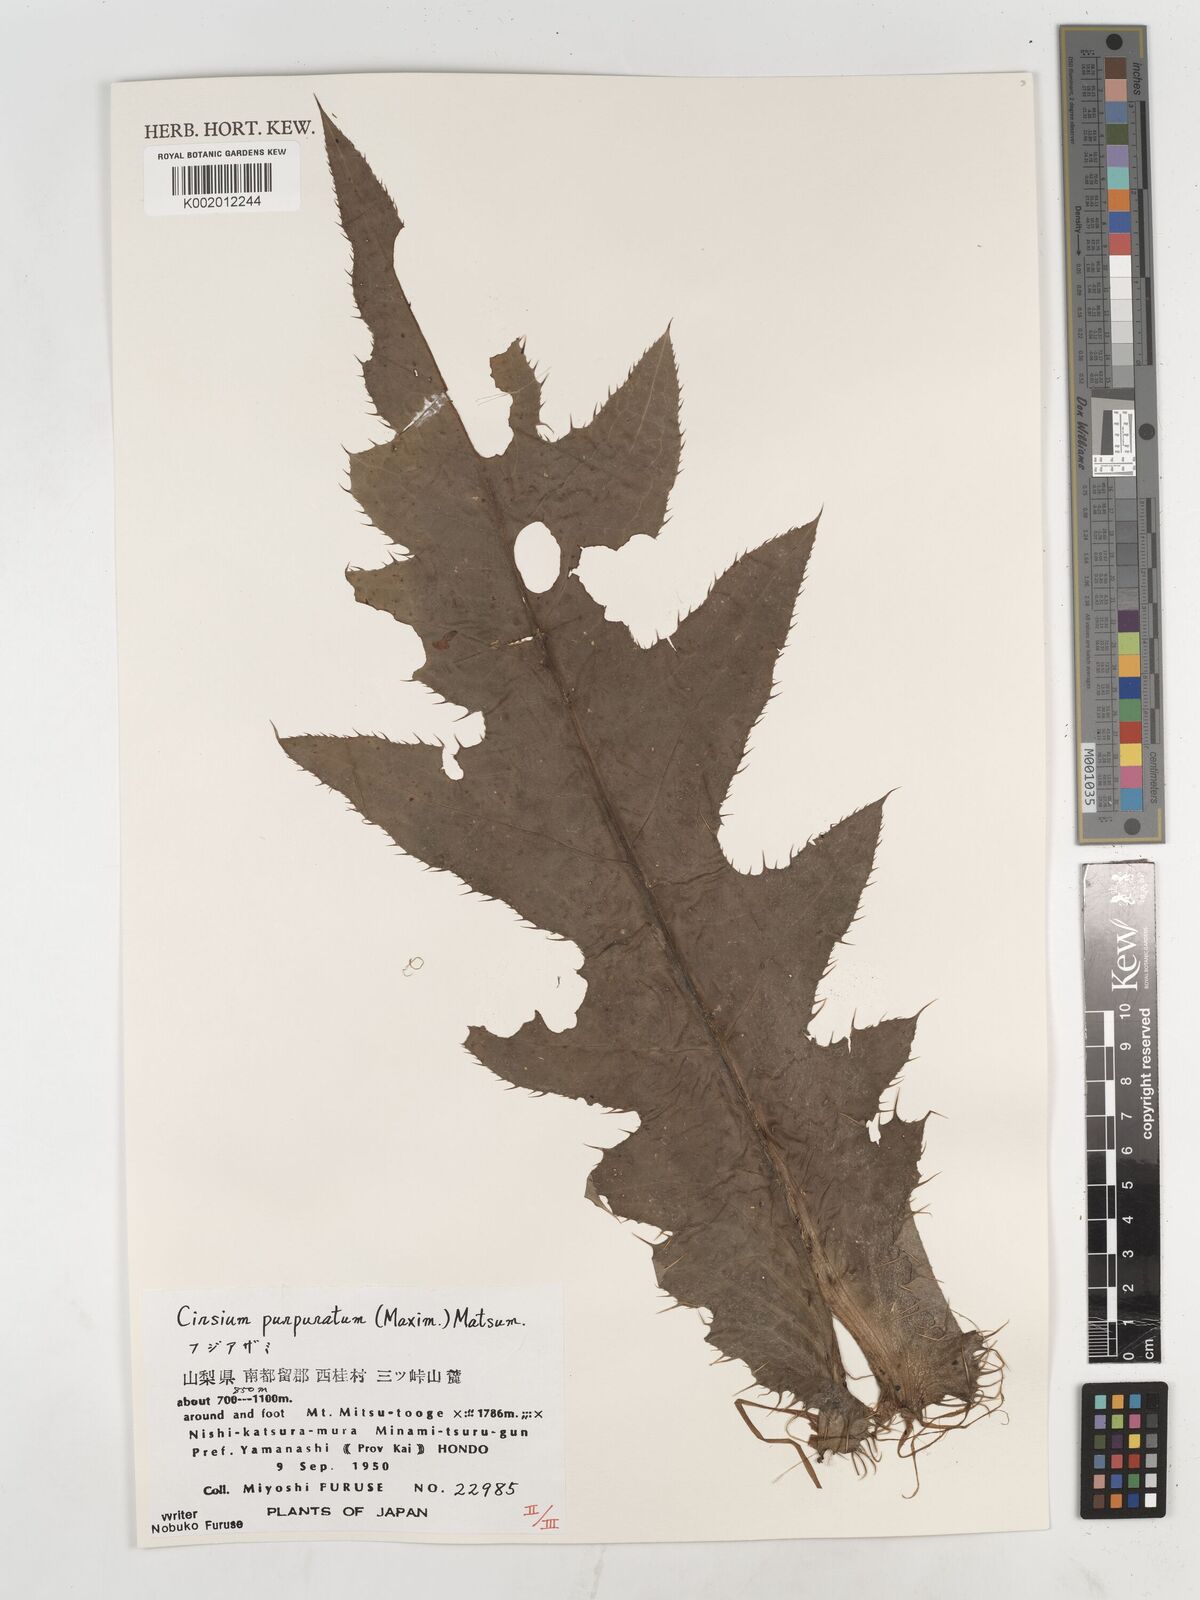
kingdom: Plantae
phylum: Tracheophyta
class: Magnoliopsida
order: Asterales
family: Asteraceae
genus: Cirsium
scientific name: Cirsium purpuratum
